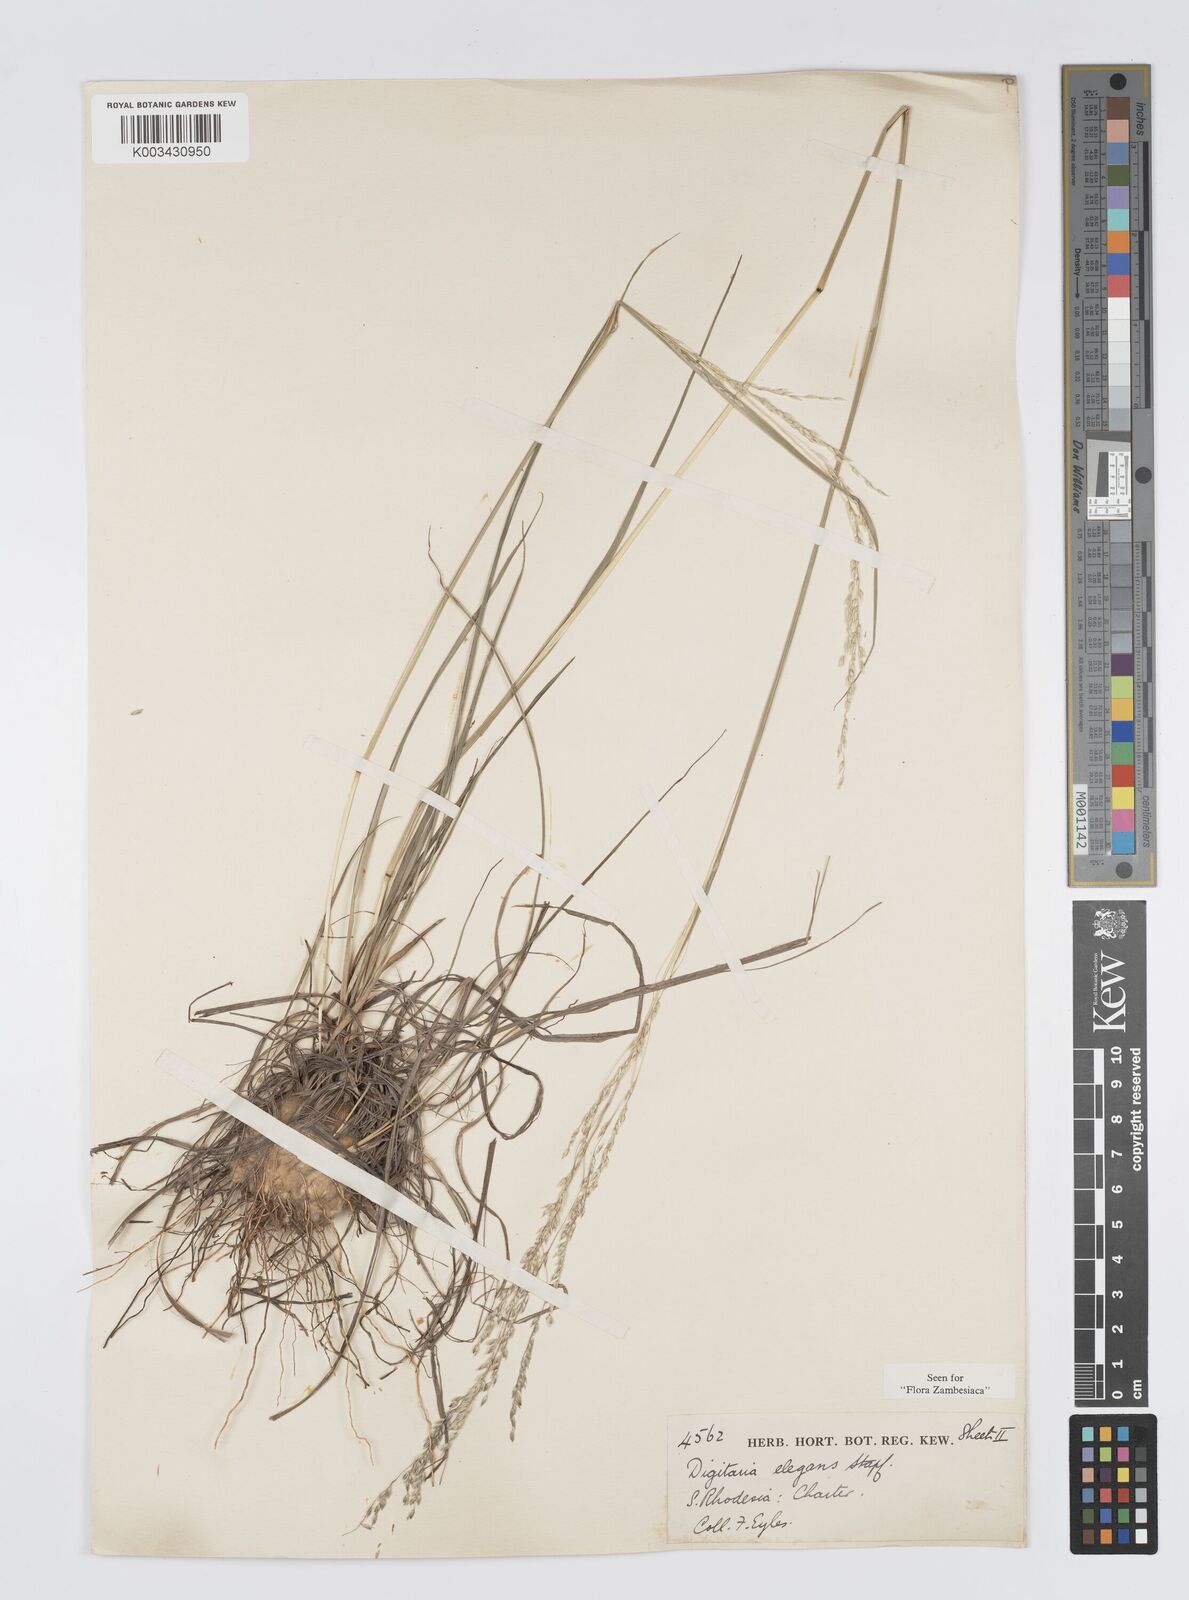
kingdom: Plantae
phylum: Tracheophyta
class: Liliopsida
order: Poales
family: Poaceae
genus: Digitaria
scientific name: Digitaria flaccida
